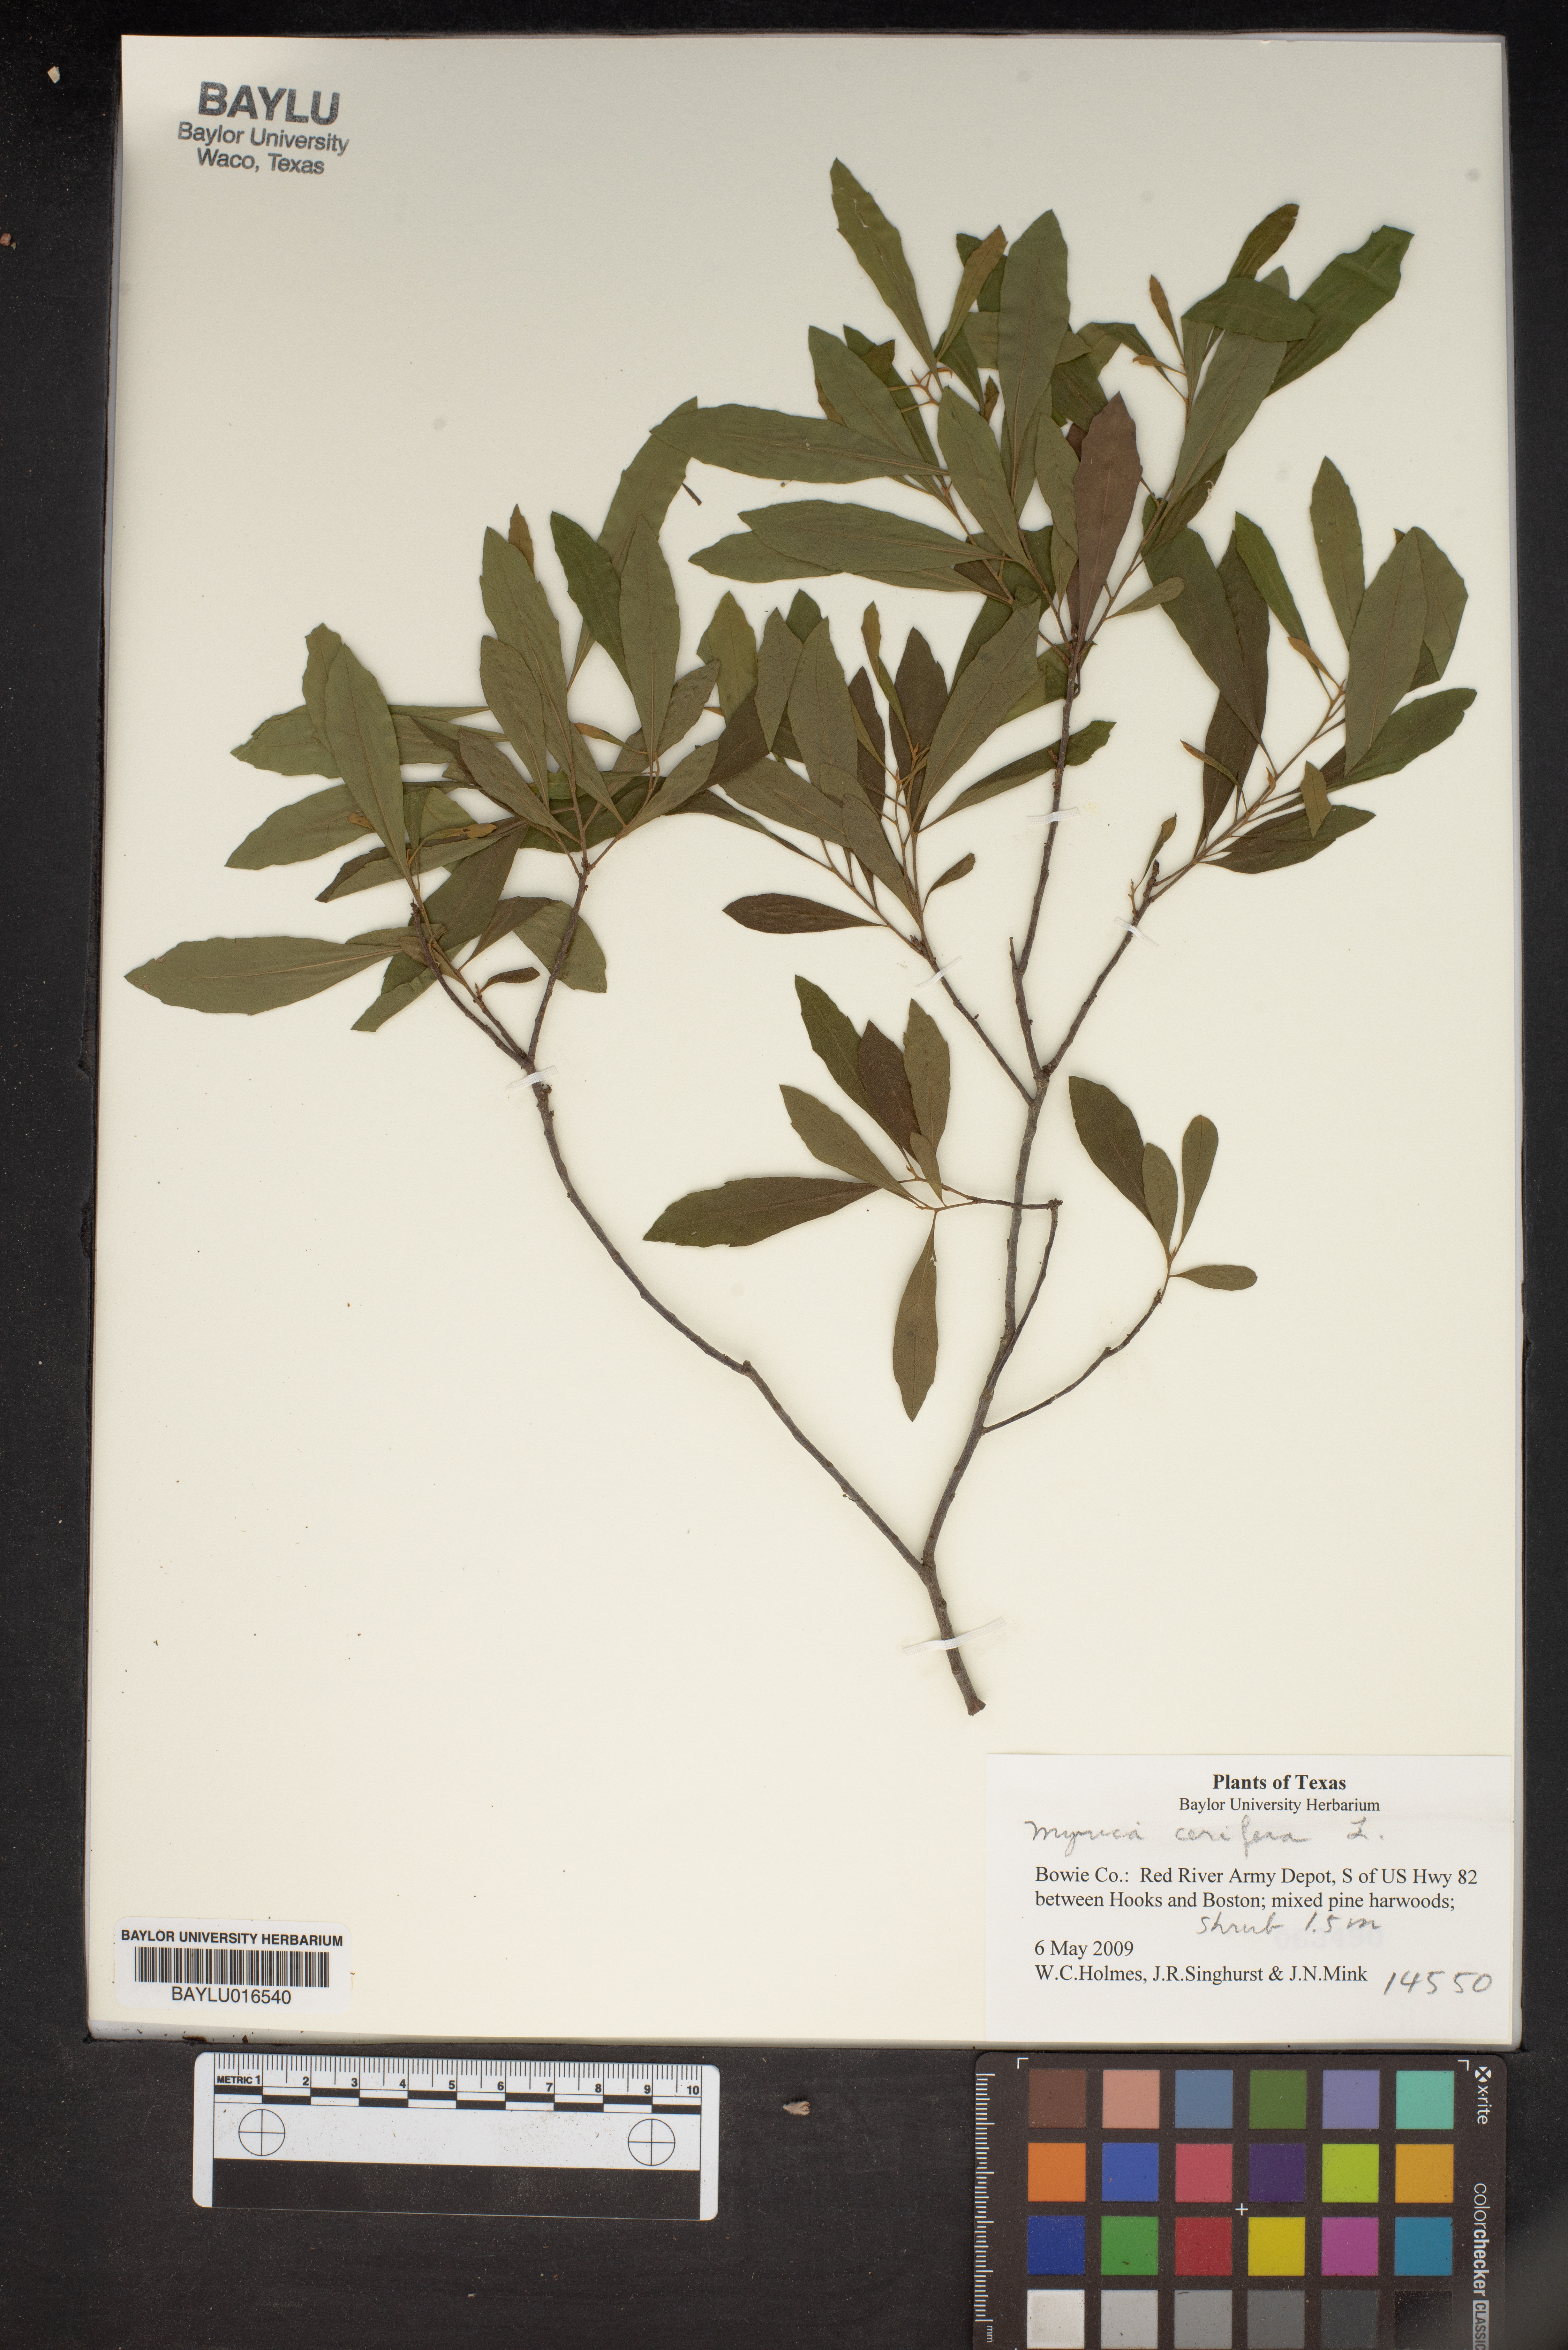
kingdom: Plantae
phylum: Tracheophyta
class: Magnoliopsida
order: Fagales
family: Myricaceae
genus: Morella
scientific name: Morella cerifera
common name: Wax myrtle
